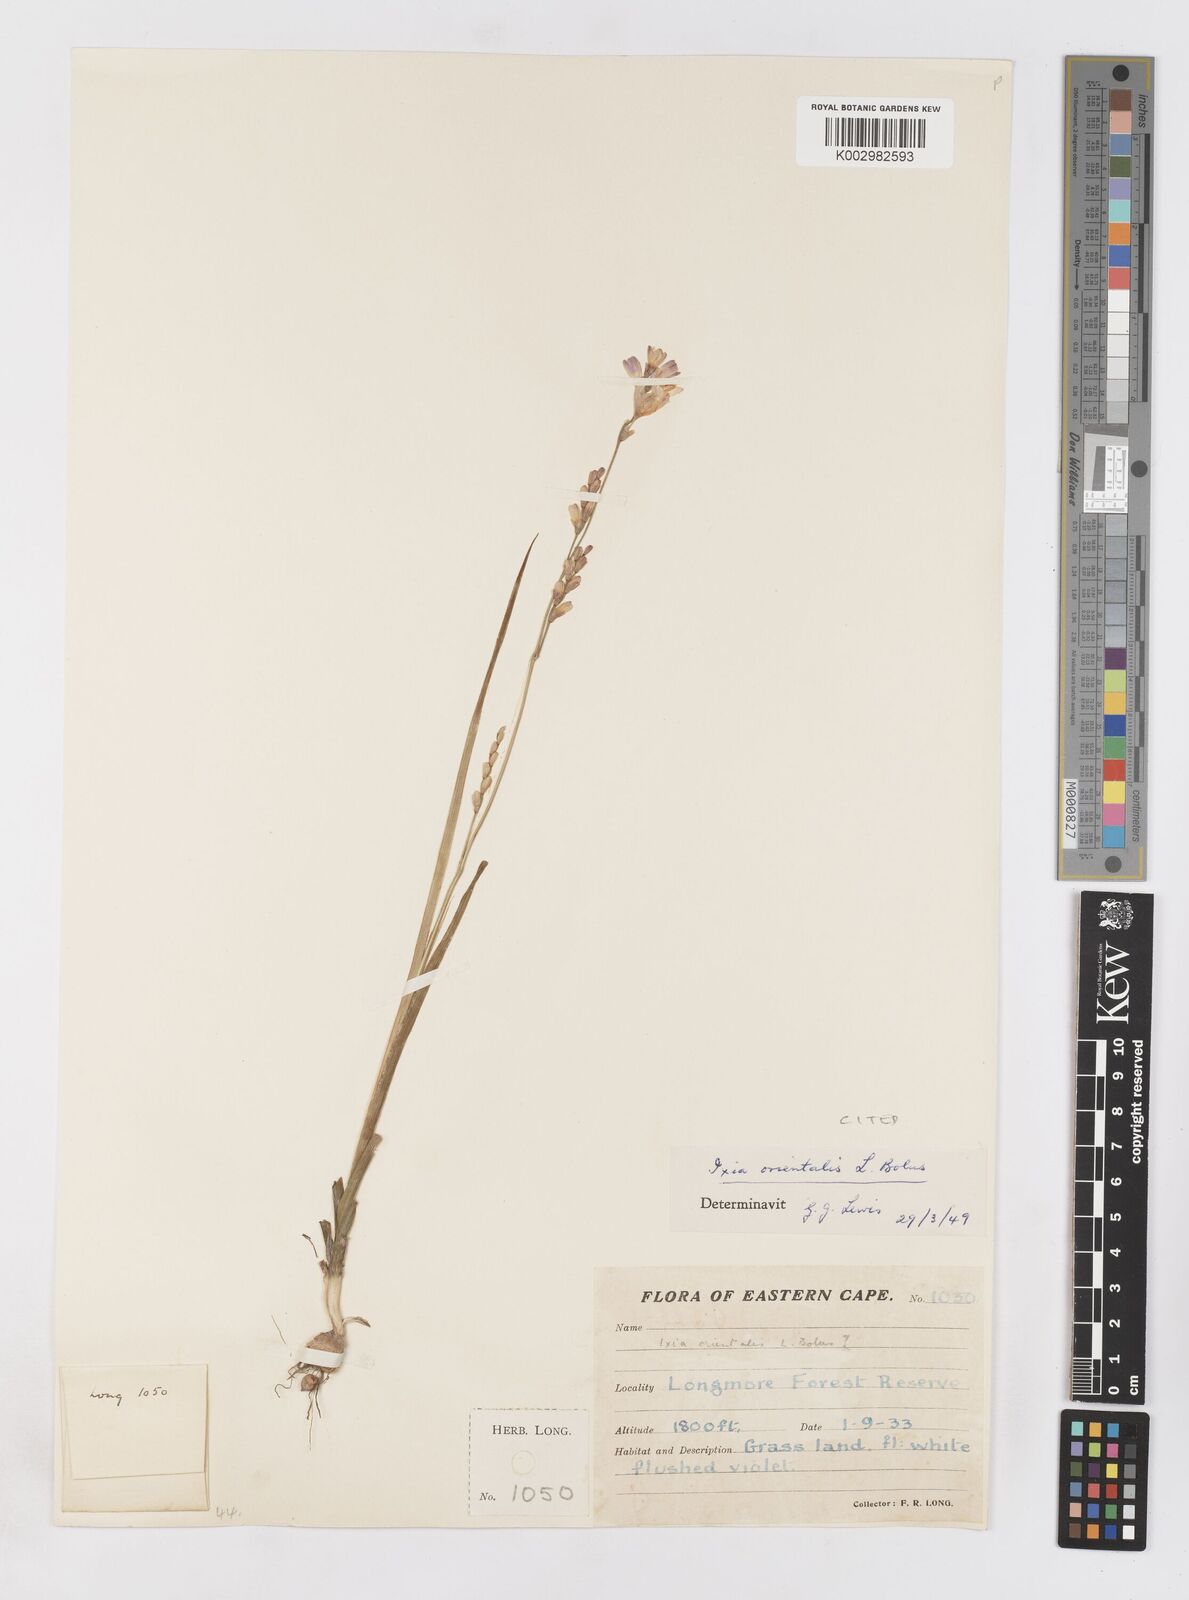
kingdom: Plantae
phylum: Tracheophyta
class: Liliopsida
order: Asparagales
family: Iridaceae
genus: Ixia
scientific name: Ixia orientalis
